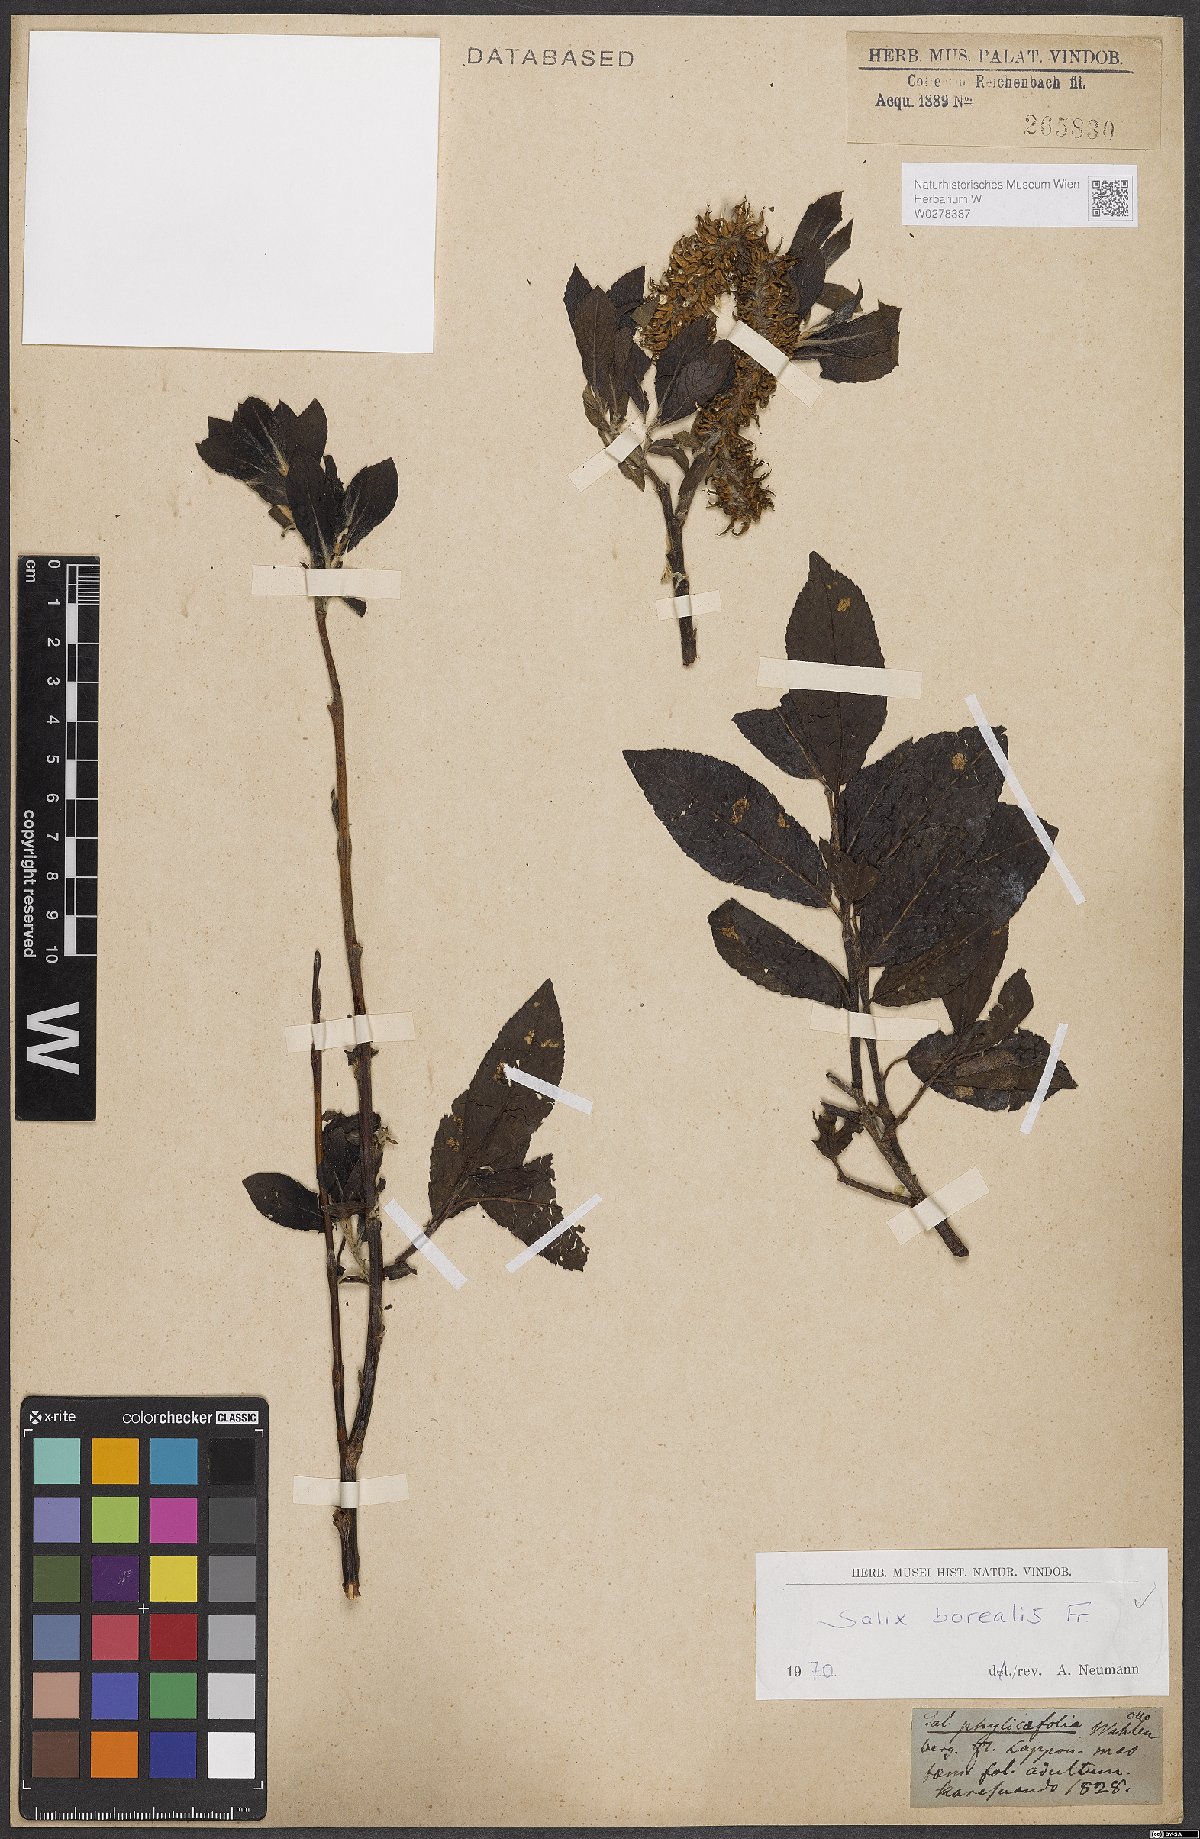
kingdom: Plantae
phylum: Tracheophyta
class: Magnoliopsida
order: Malpighiales
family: Salicaceae
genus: Salix
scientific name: Salix myrsinifolia
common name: Dark-leaved willow
